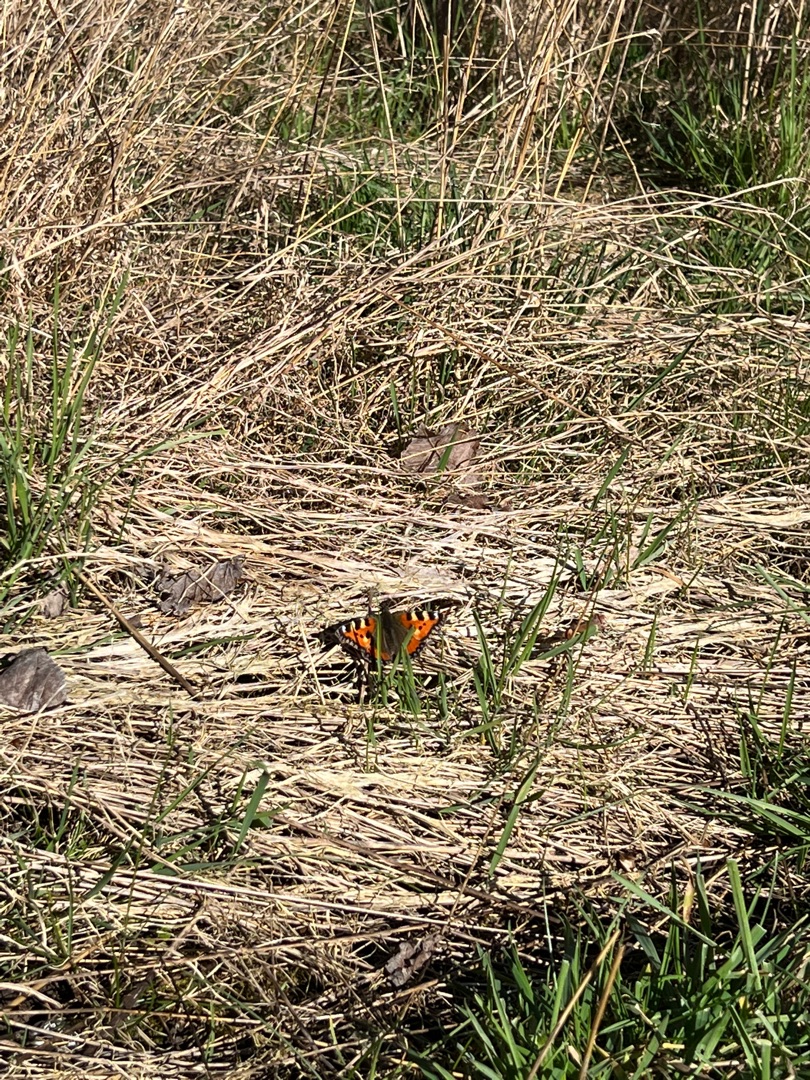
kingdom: Animalia
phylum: Arthropoda
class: Insecta
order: Lepidoptera
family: Nymphalidae
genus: Aglais
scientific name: Aglais urticae
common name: Nældens takvinge
